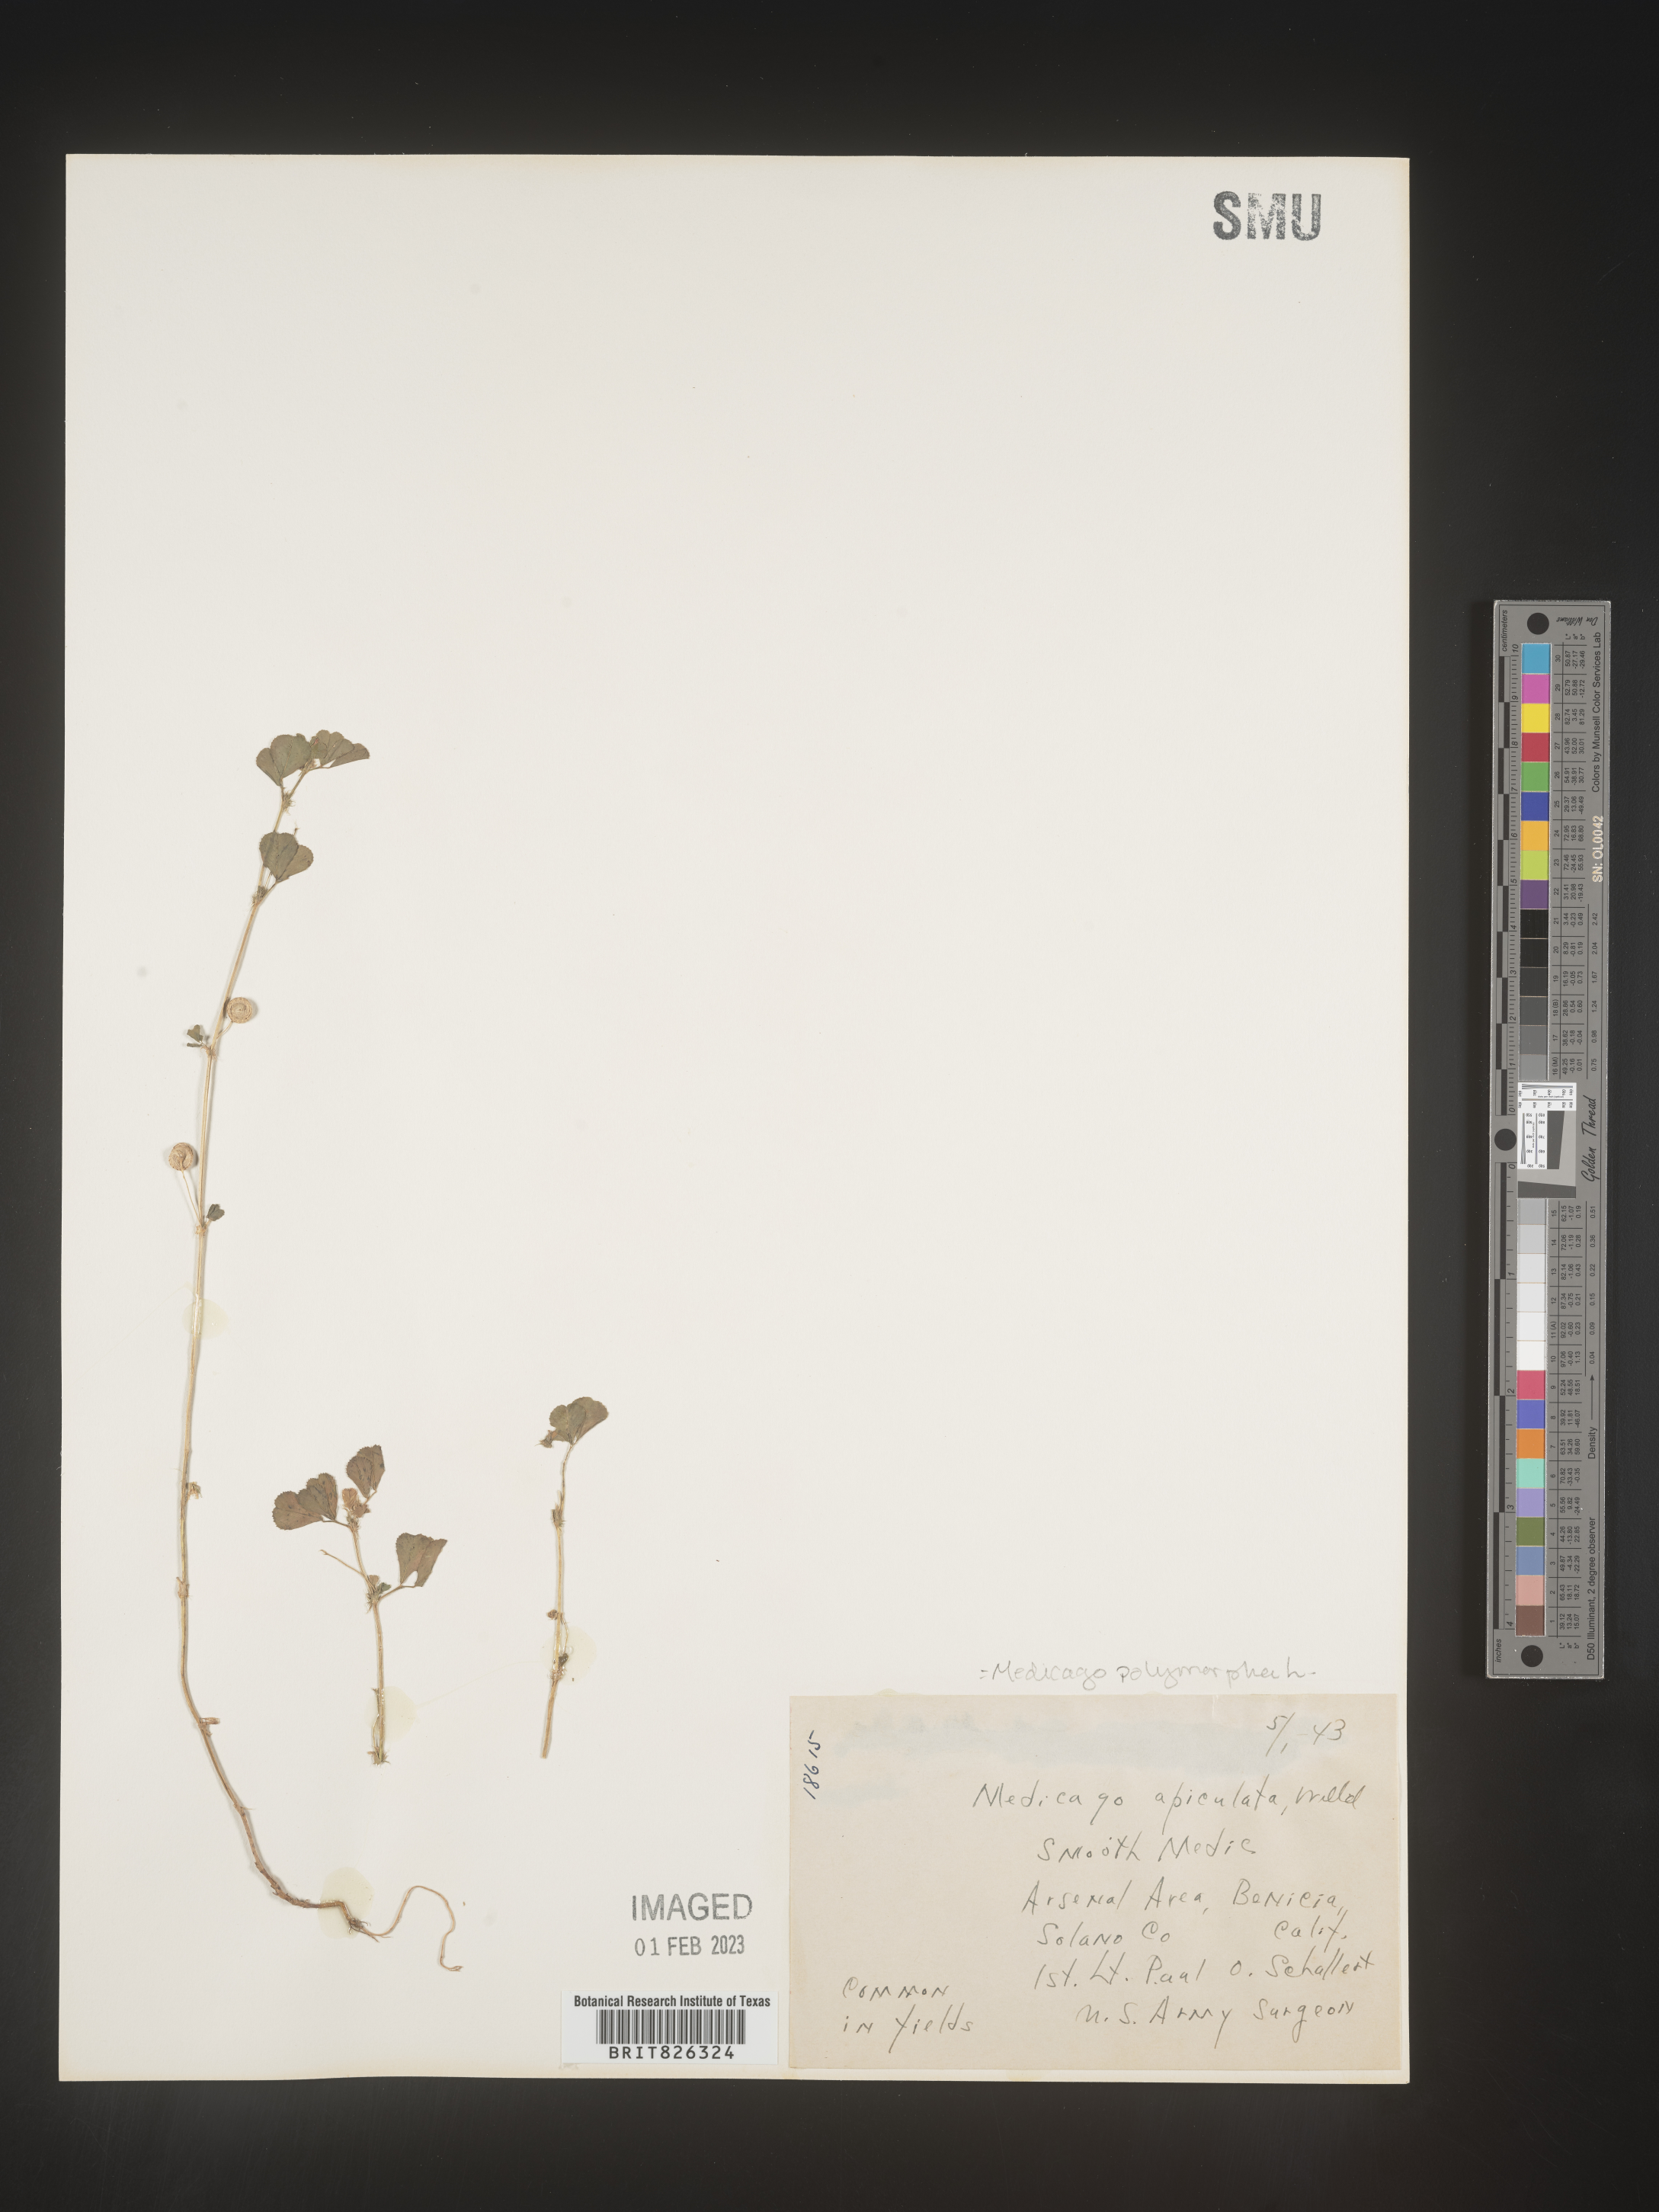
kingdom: Plantae
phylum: Tracheophyta
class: Magnoliopsida
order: Fabales
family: Fabaceae
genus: Medicago
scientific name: Medicago polymorpha
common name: Burclover
